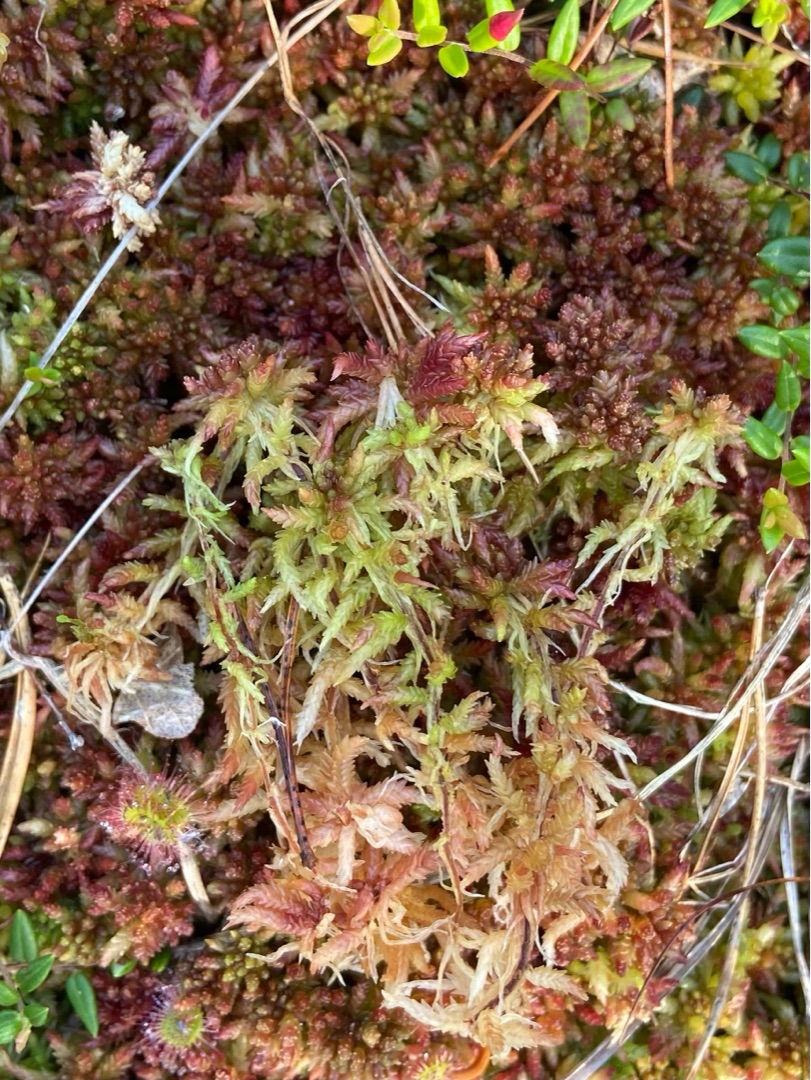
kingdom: Plantae
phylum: Bryophyta
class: Sphagnopsida
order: Sphagnales
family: Sphagnaceae
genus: Sphagnum
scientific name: Sphagnum divinum
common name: Rød tørvemos (delvist)
